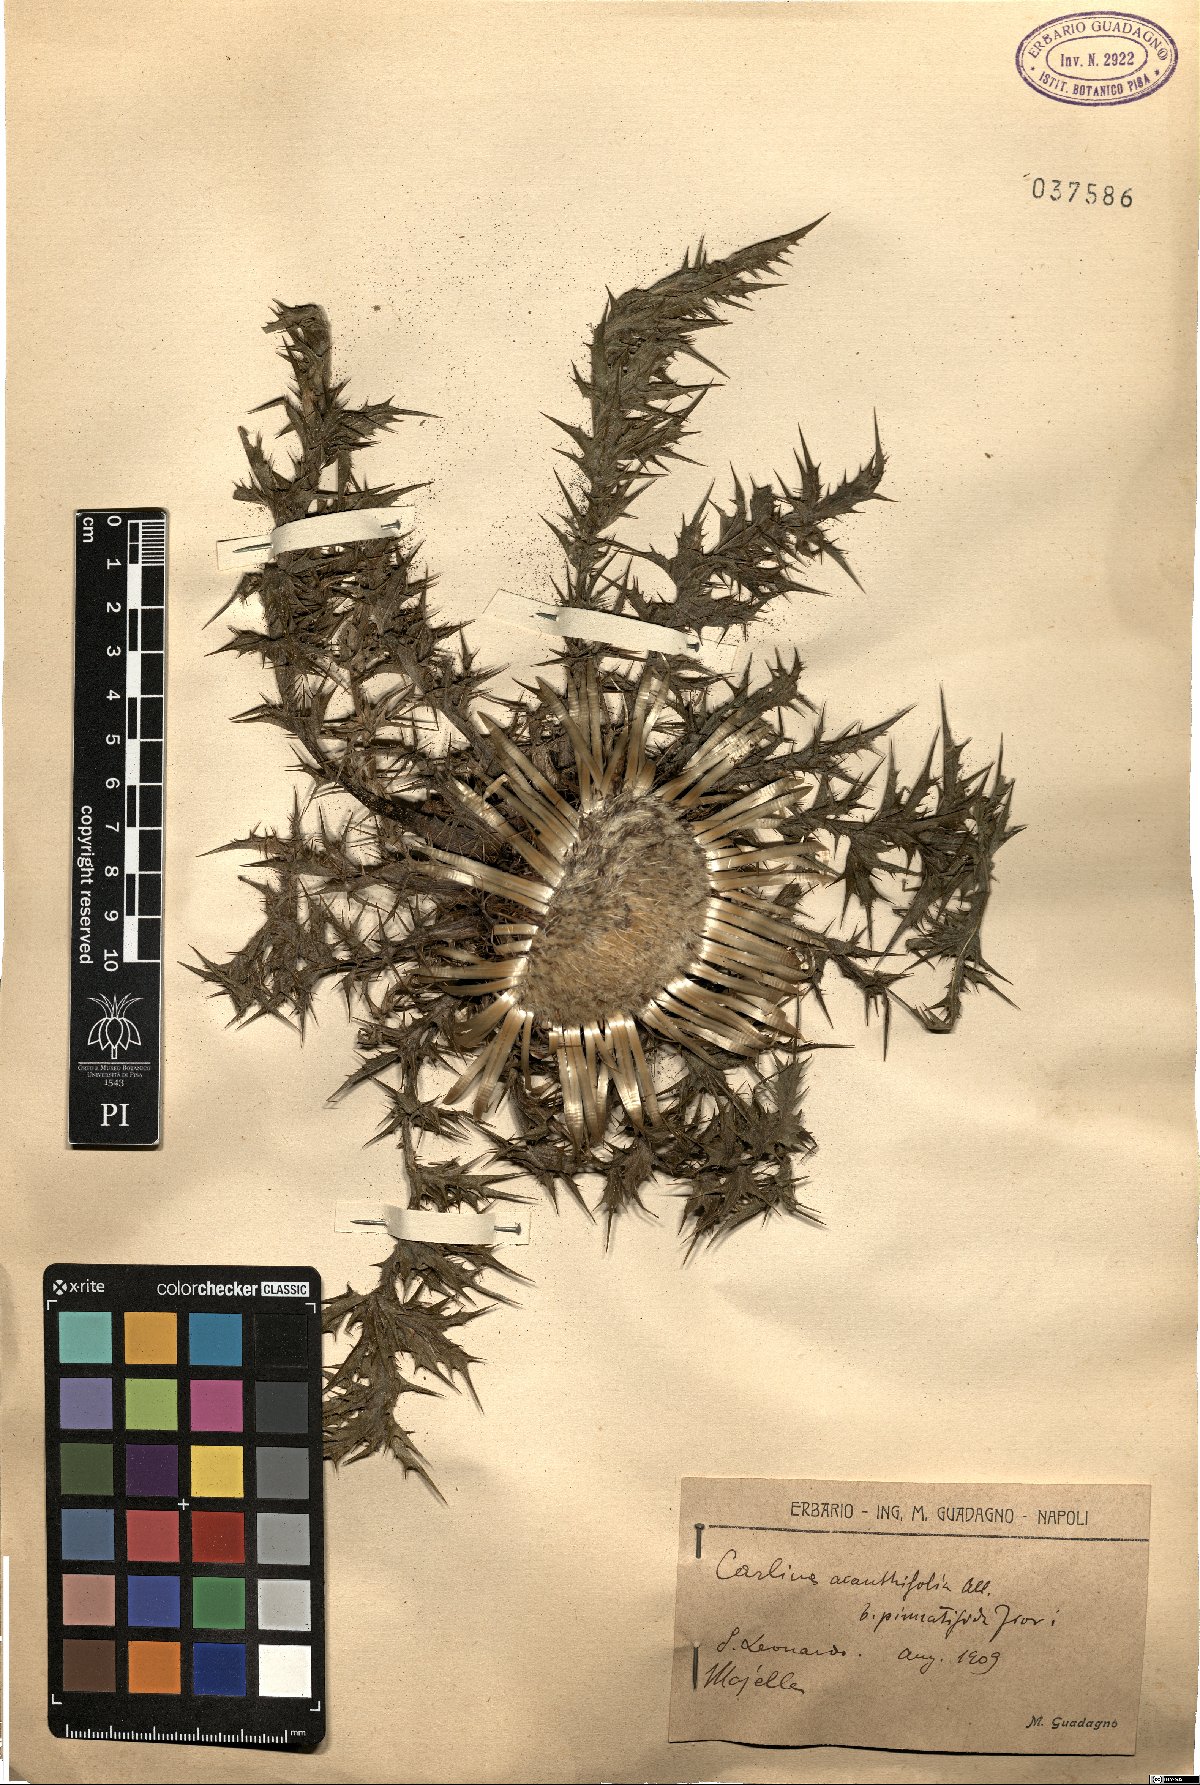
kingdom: Plantae
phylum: Tracheophyta
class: Magnoliopsida
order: Asterales
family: Asteraceae
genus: Carlina
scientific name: Carlina acanthifolia
